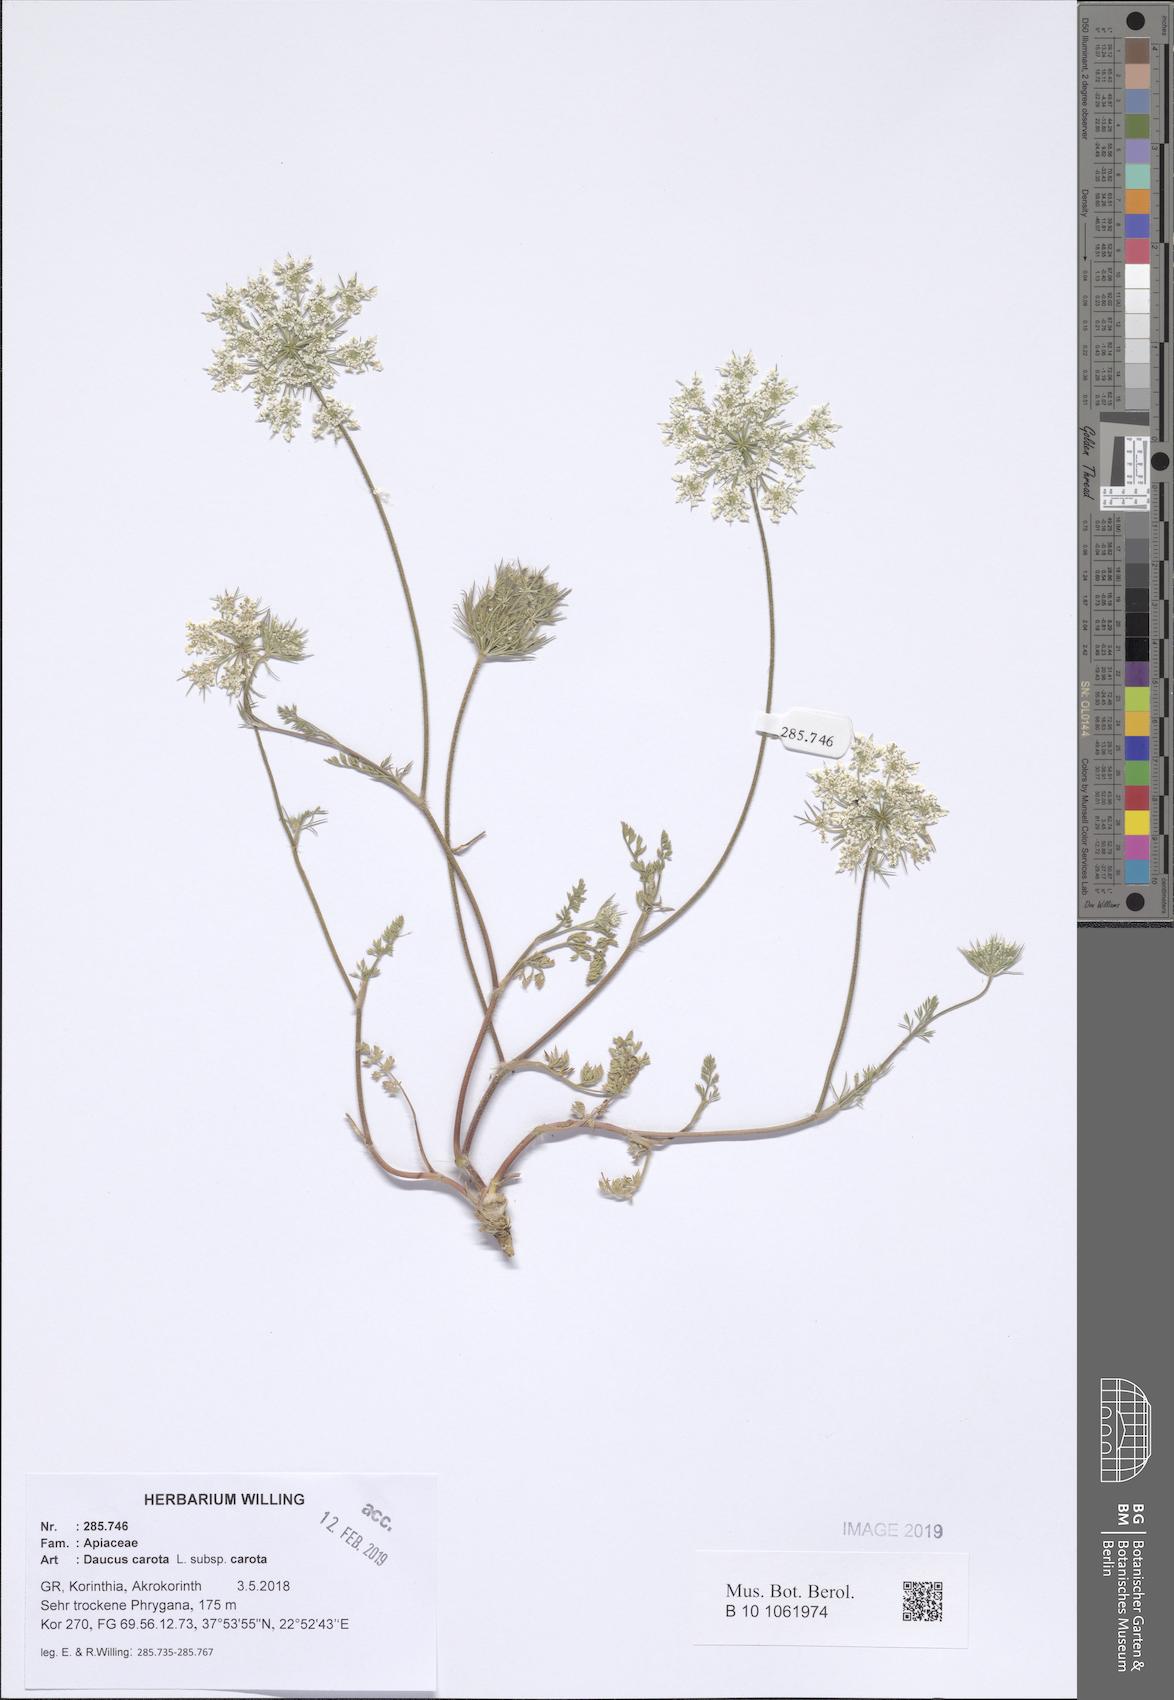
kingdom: Plantae
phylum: Tracheophyta
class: Magnoliopsida
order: Apiales
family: Apiaceae
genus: Daucus
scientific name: Daucus carota
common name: Wild carrot
